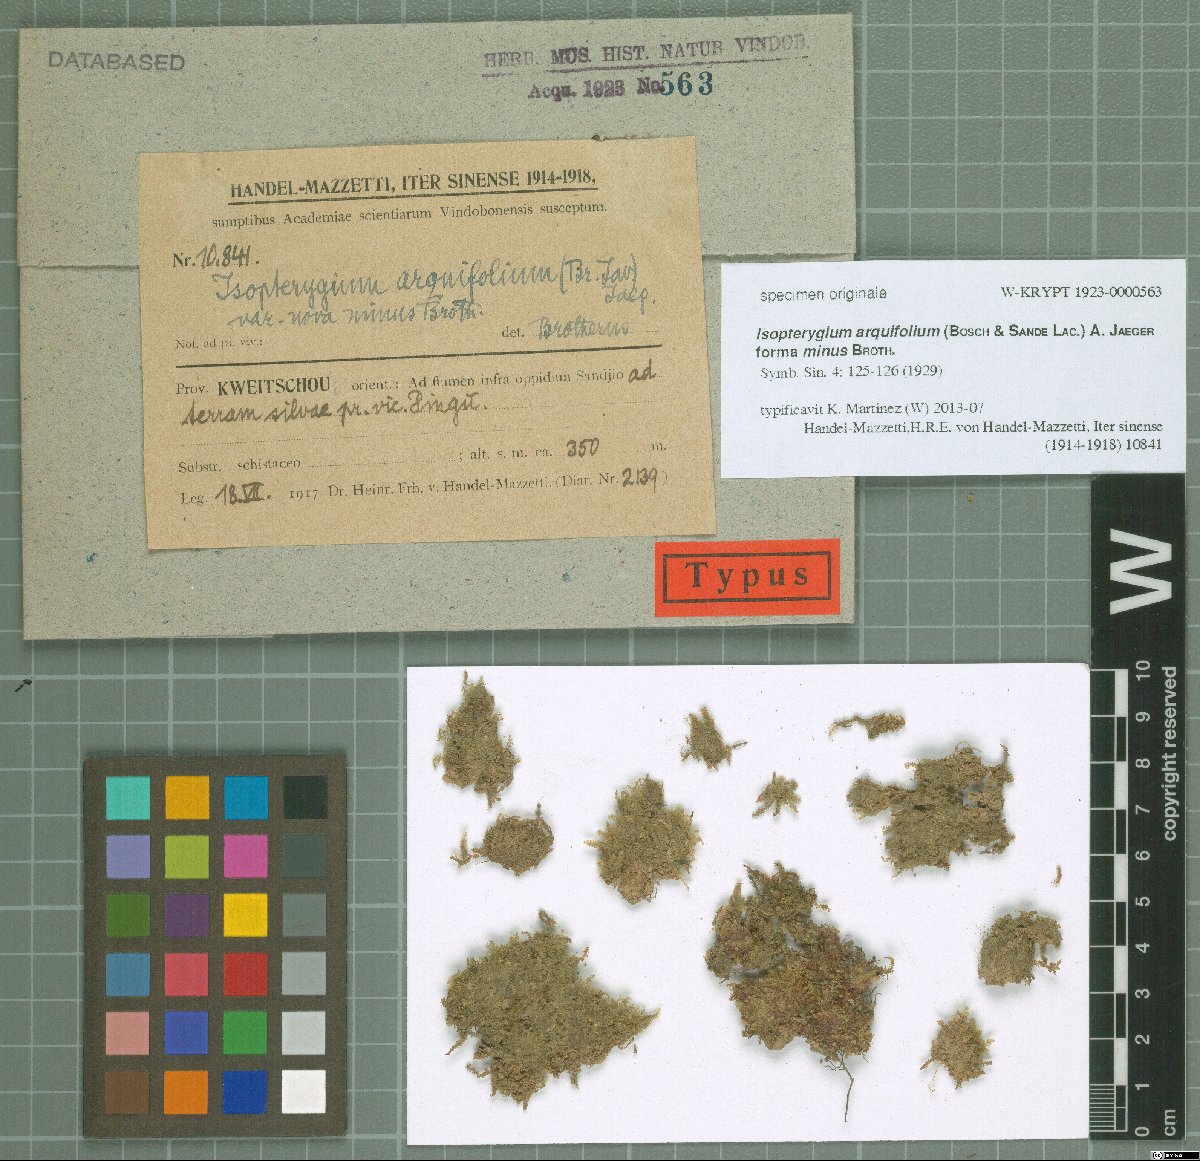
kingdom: Plantae
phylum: Bryophyta
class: Bryopsida
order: Hypnales
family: Plagiotheciaceae
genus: Pseudotaxiphyllum
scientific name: Pseudotaxiphyllum pohliicarpum
